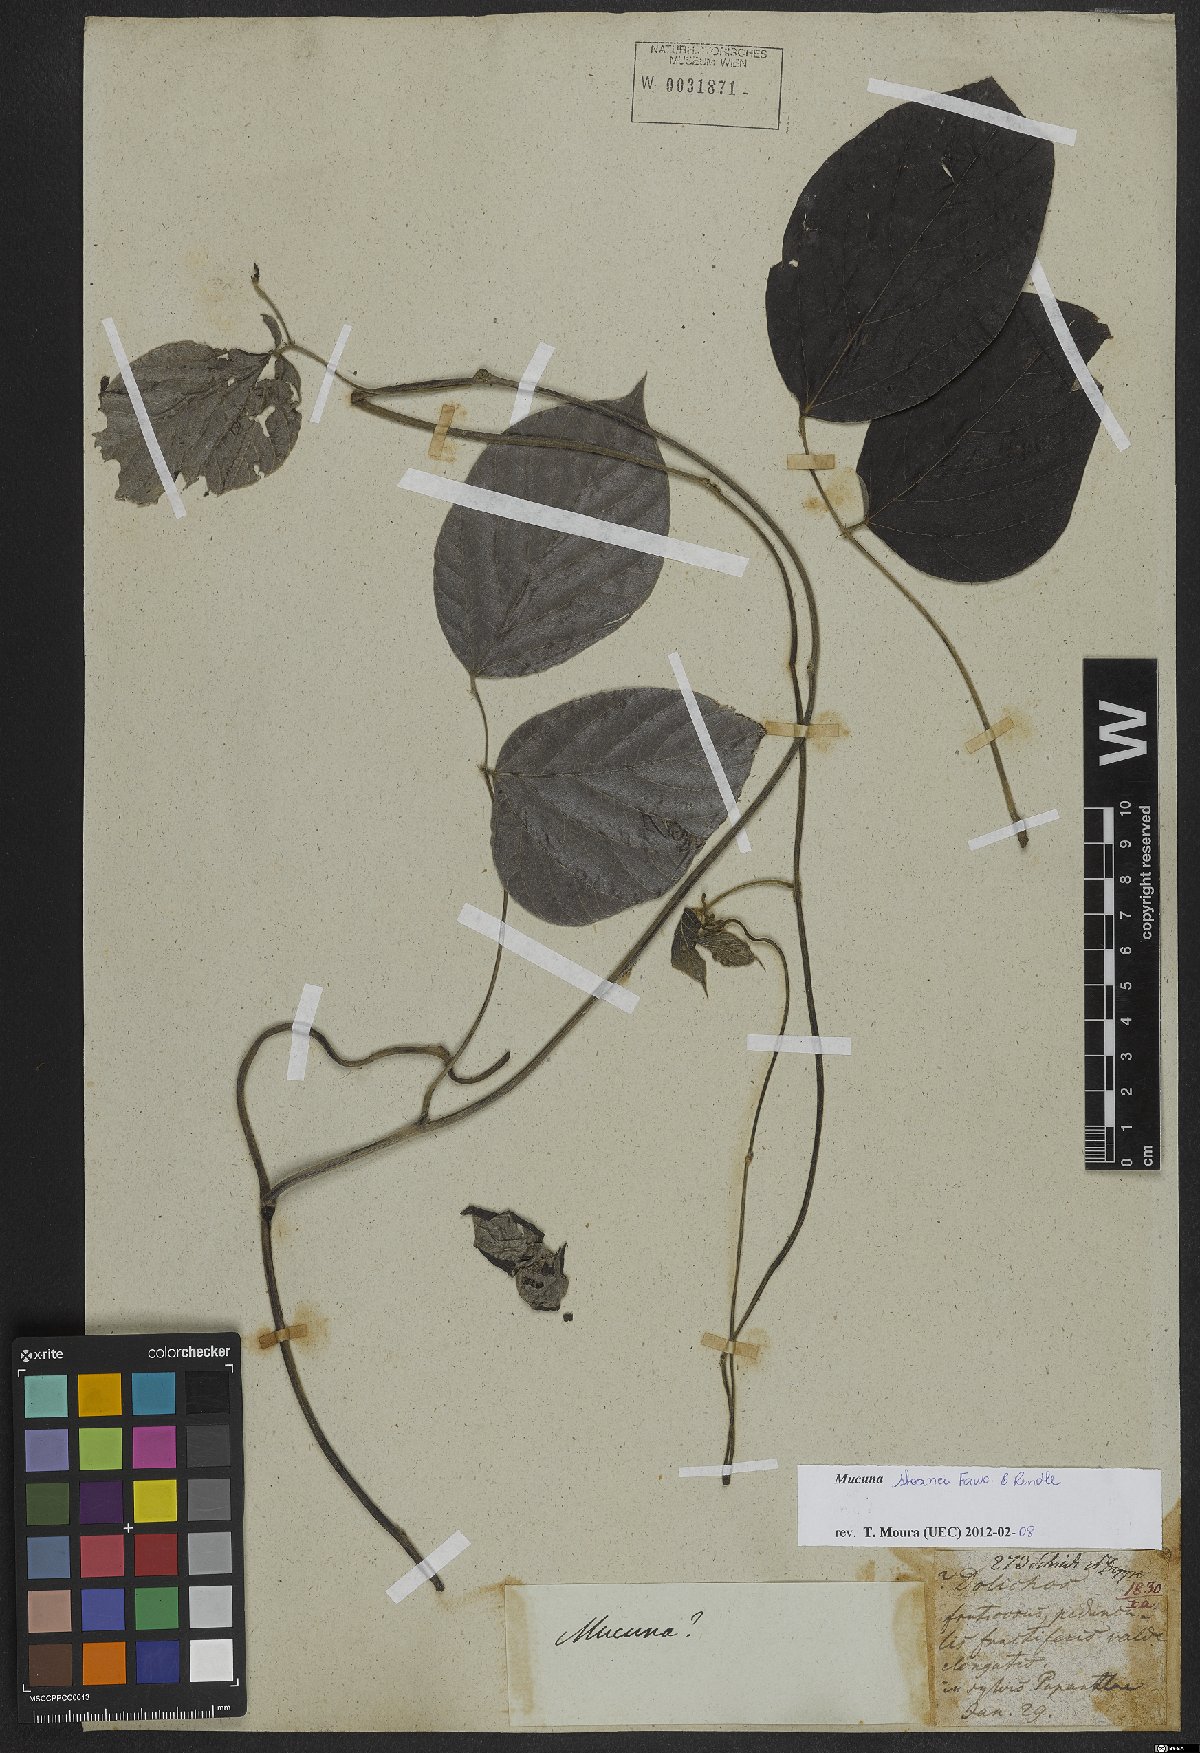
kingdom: Plantae
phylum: Tracheophyta
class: Magnoliopsida
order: Fabales
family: Fabaceae
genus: Mucuna
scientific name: Mucuna sloanei
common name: Horse-eye bean
